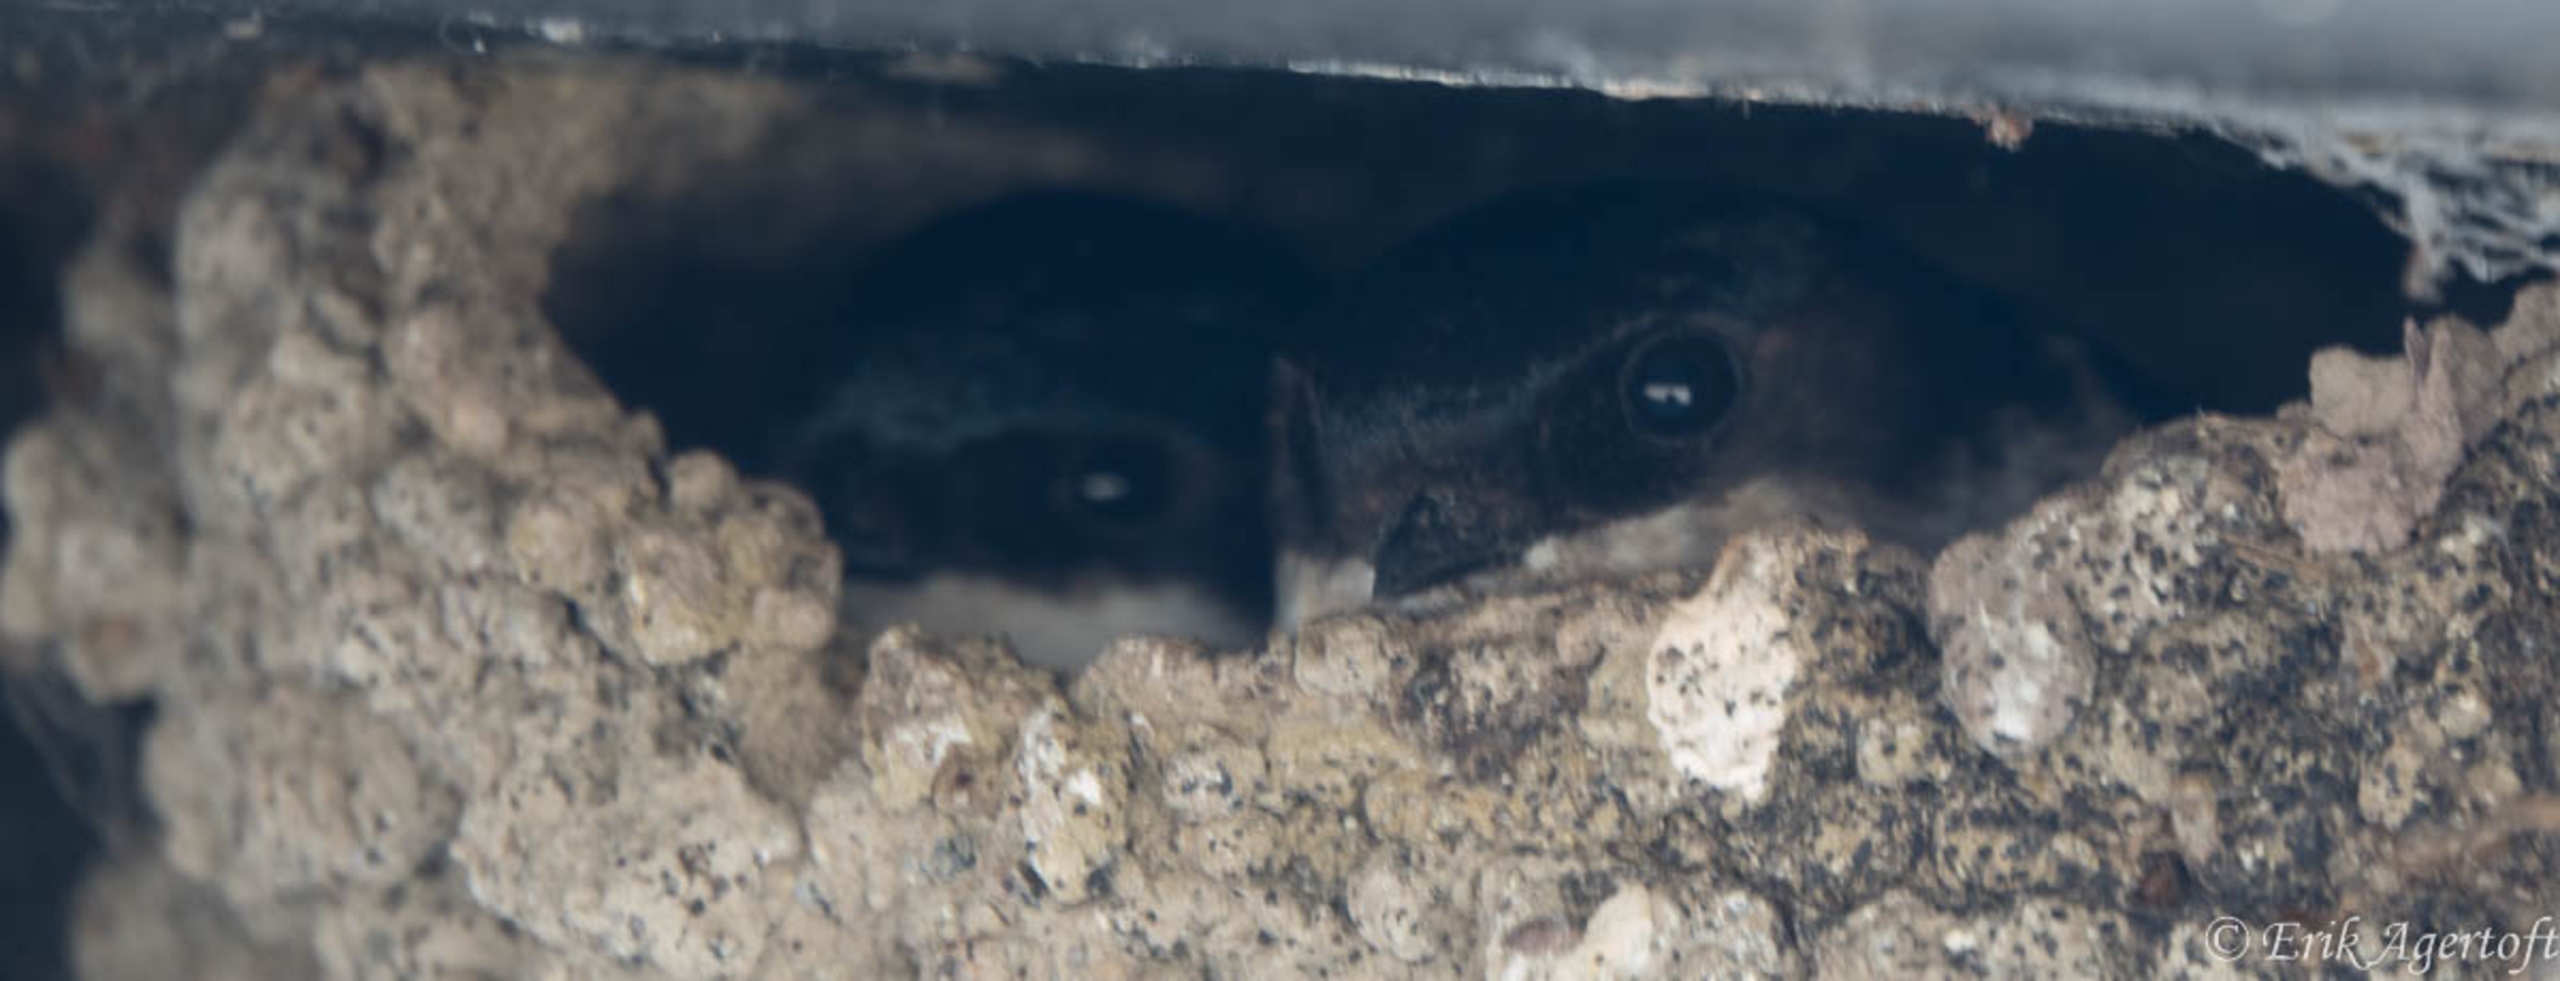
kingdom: Animalia
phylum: Chordata
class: Aves
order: Passeriformes
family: Hirundinidae
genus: Delichon
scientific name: Delichon urbicum
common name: Bysvale
